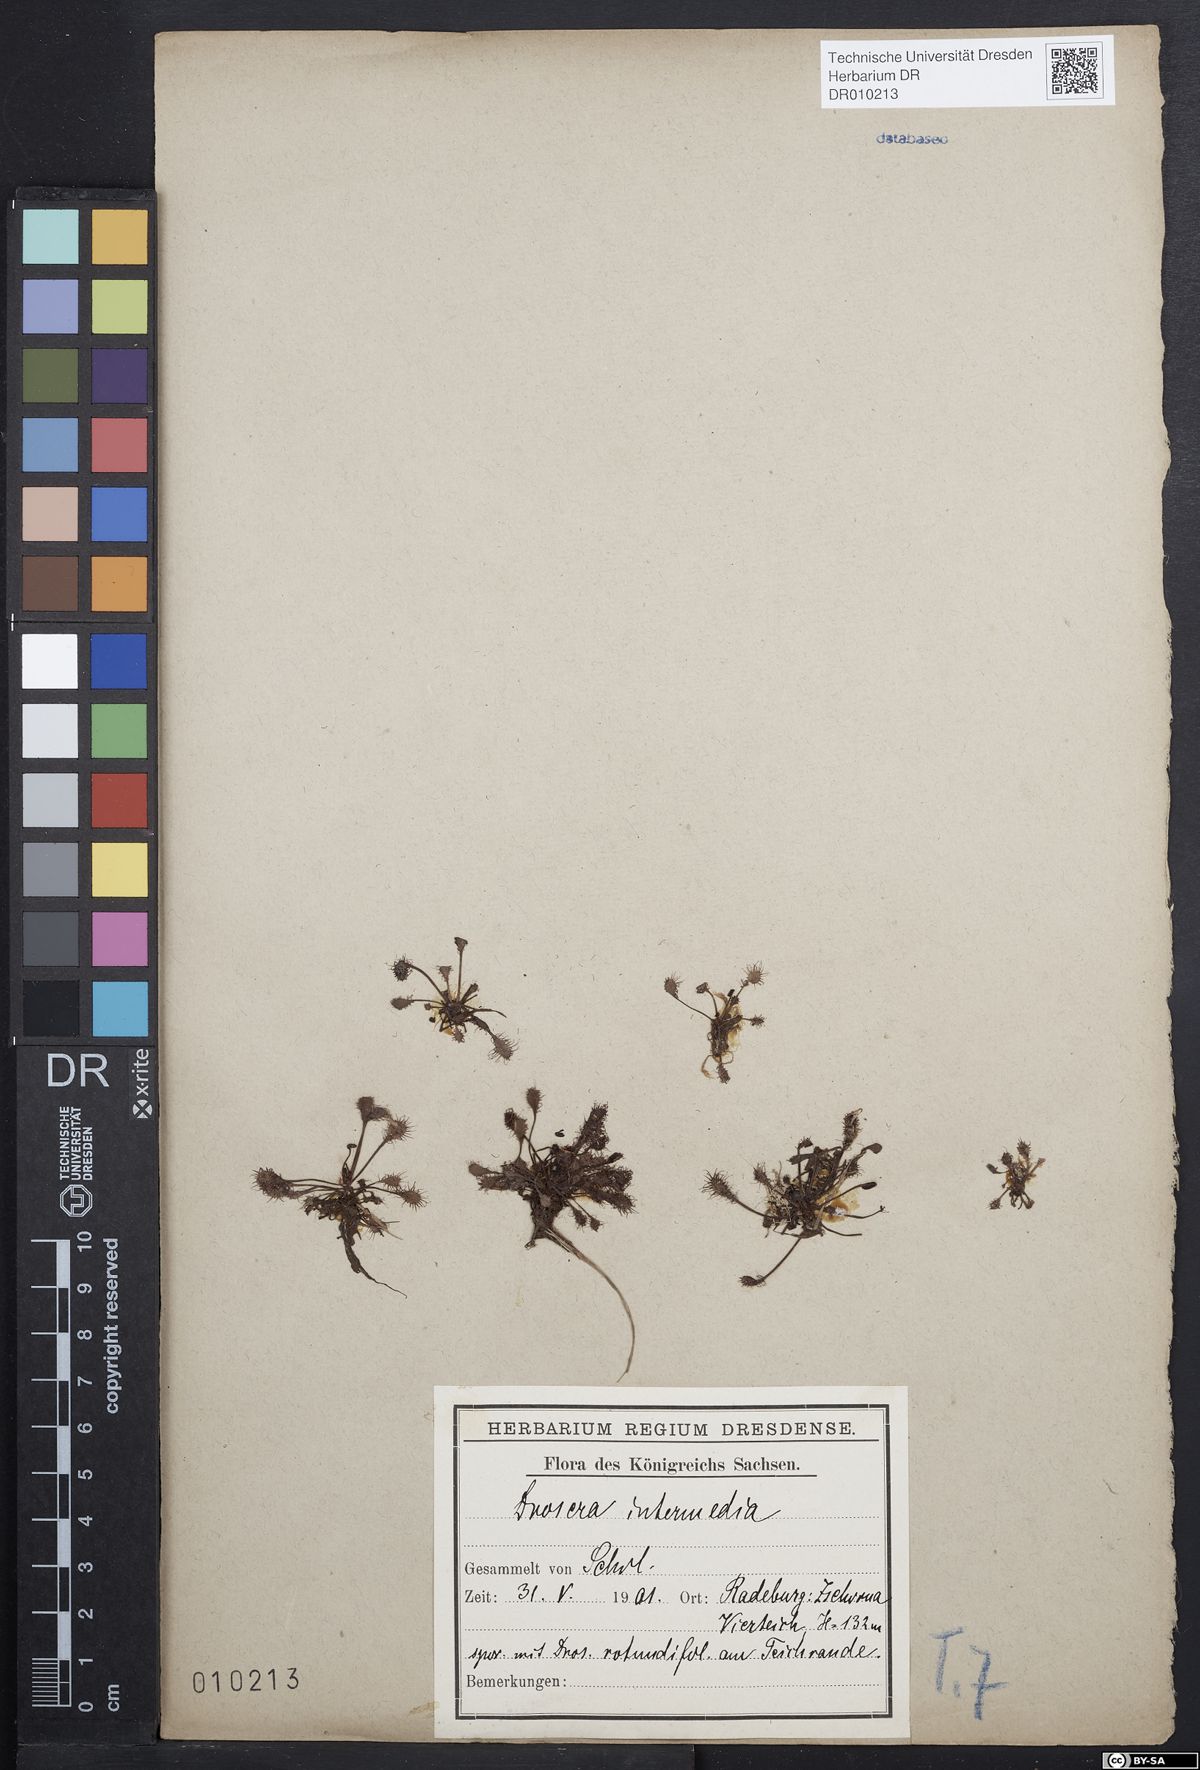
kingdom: Plantae
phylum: Tracheophyta
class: Magnoliopsida
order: Caryophyllales
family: Droseraceae
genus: Drosera
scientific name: Drosera intermedia
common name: Oblong-leaved sundew
